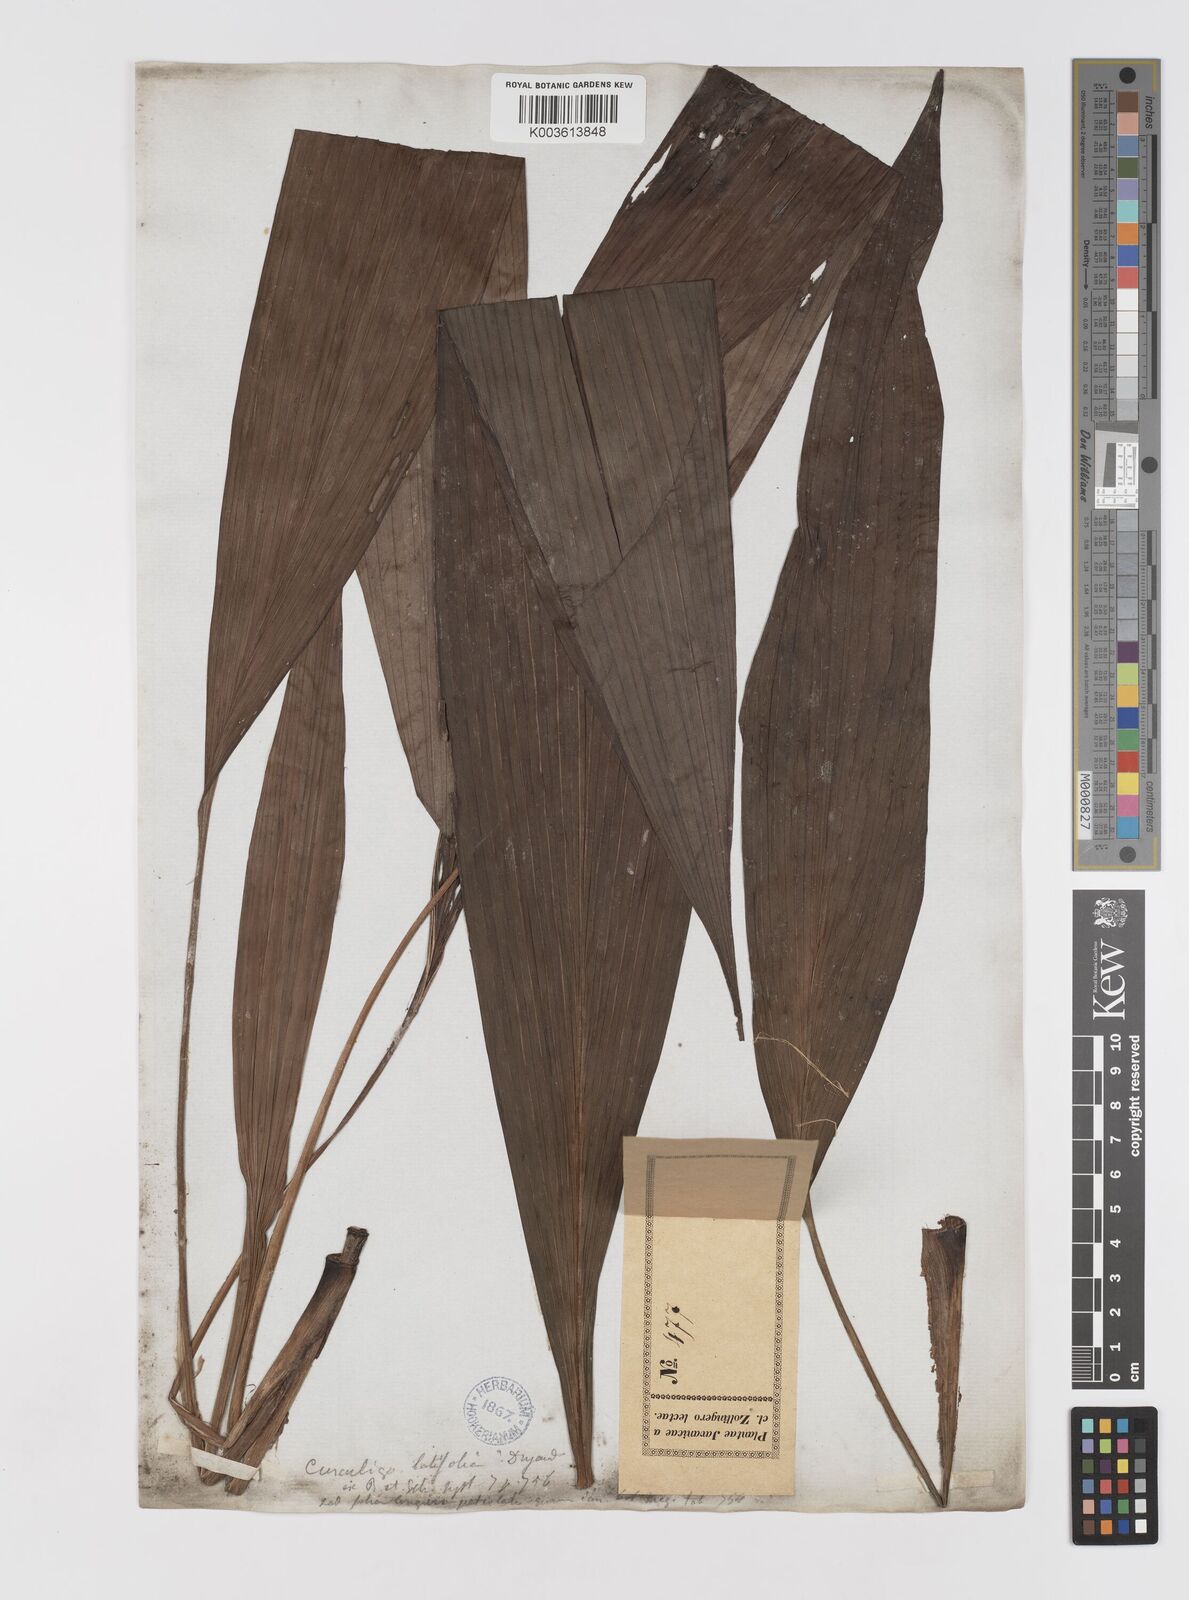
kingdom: Plantae
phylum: Tracheophyta
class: Liliopsida
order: Asparagales
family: Hypoxidaceae
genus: Curculigo
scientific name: Curculigo latifolia
